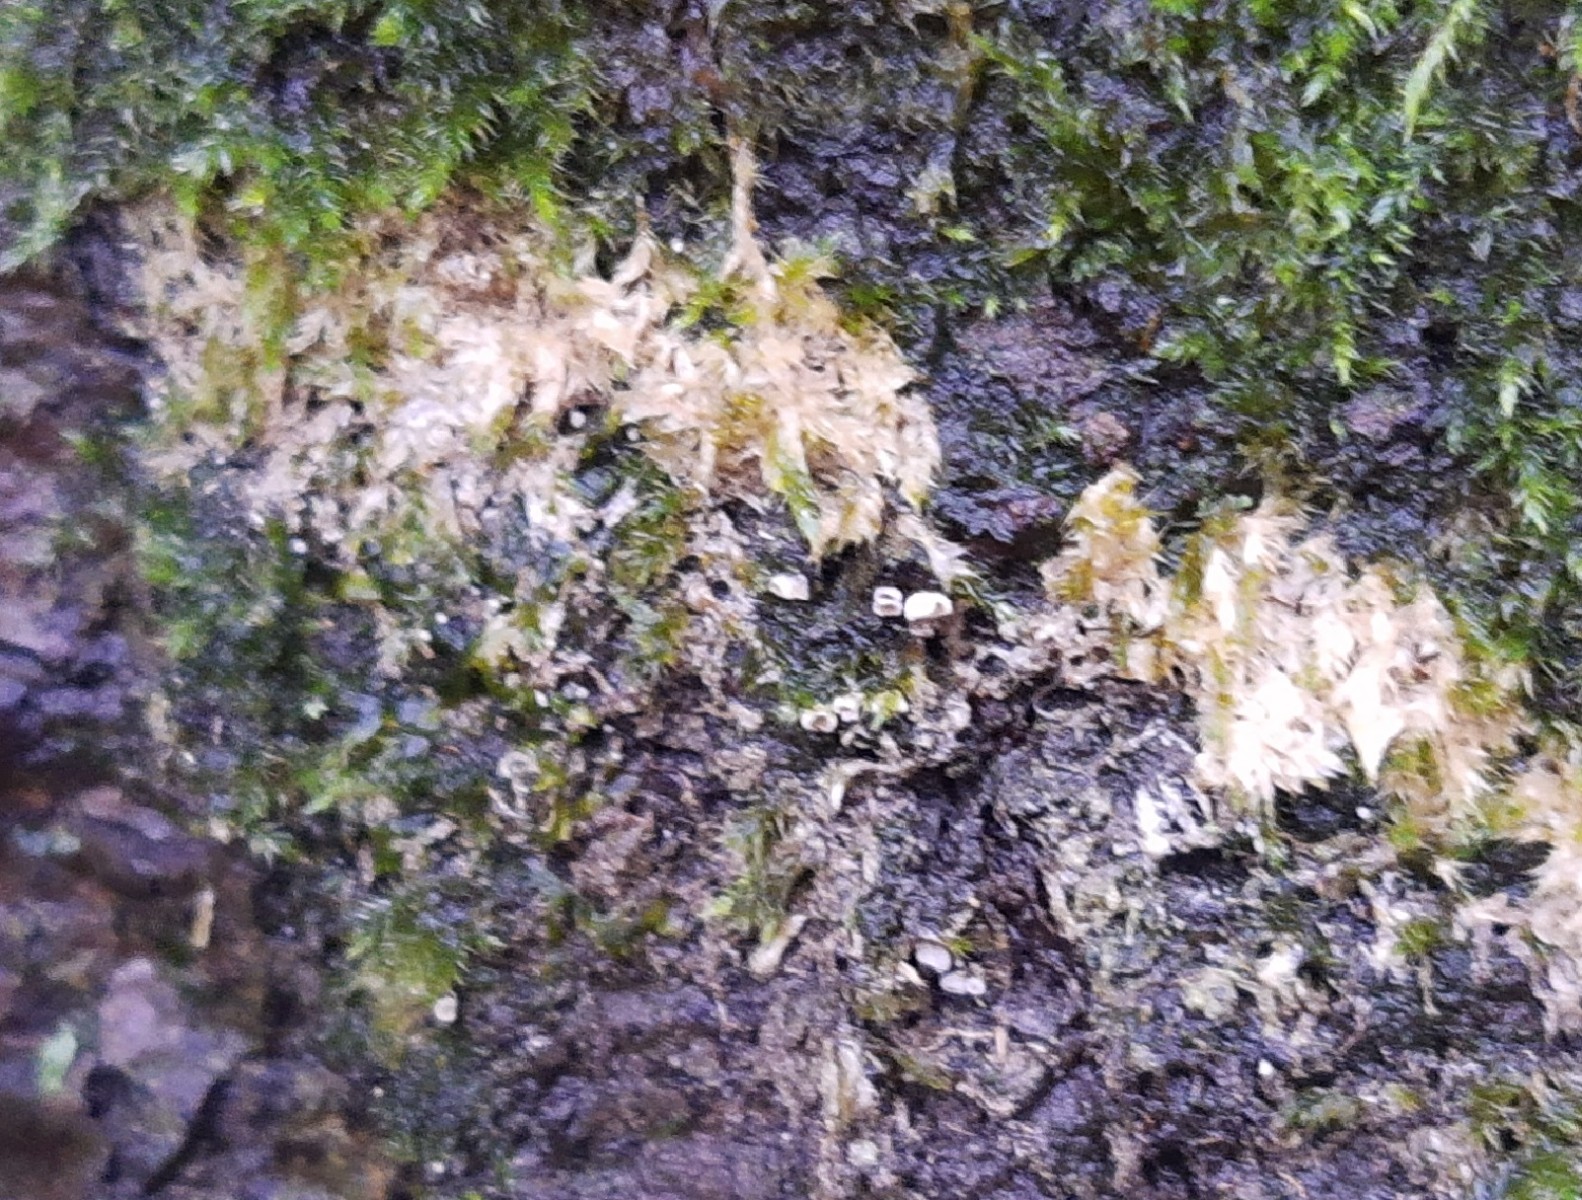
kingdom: Fungi
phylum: Basidiomycota
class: Agaricomycetes
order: Agaricales
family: Chromocyphellaceae
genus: Chromocyphella
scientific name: Chromocyphella muscicola
